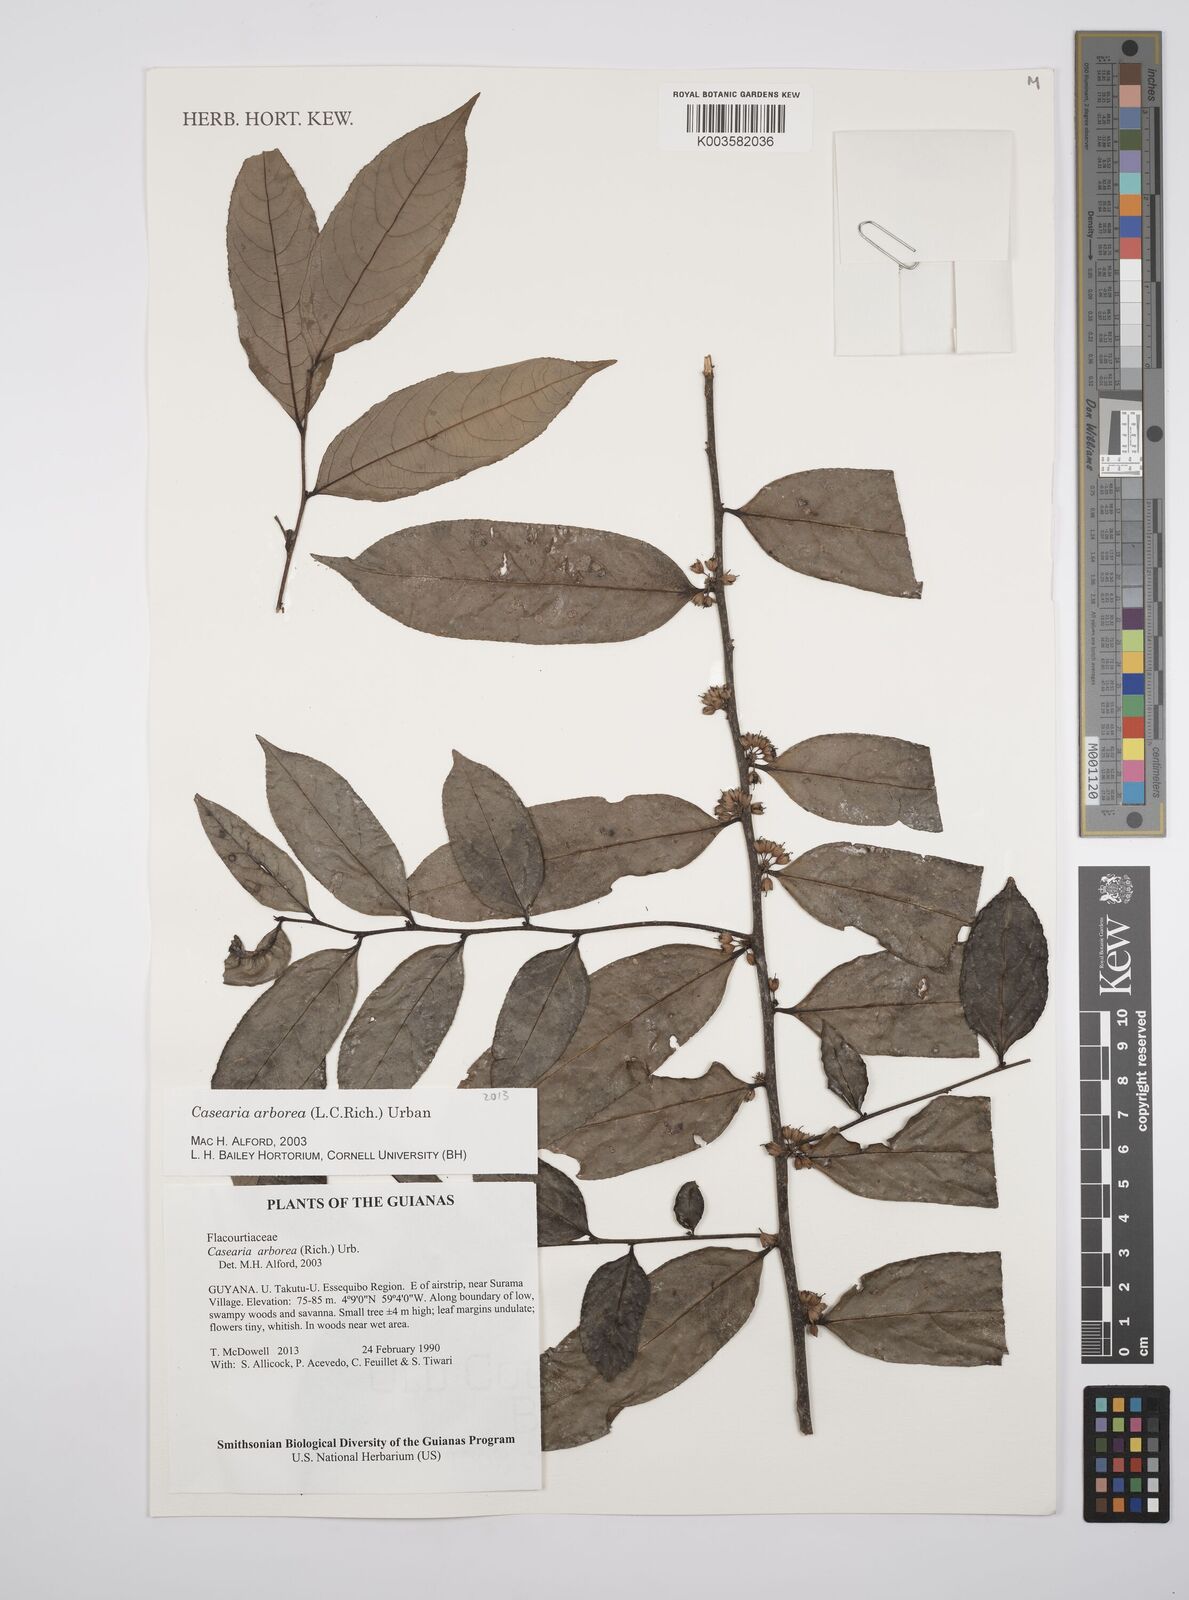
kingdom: Plantae
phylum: Tracheophyta
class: Magnoliopsida
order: Malpighiales
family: Salicaceae
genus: Casearia
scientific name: Casearia arborea
